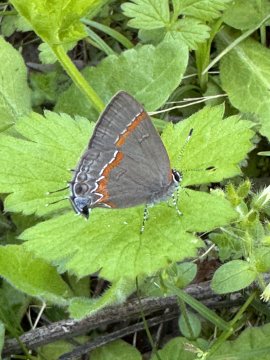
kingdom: Animalia
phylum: Arthropoda
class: Insecta
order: Lepidoptera
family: Lycaenidae
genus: Calycopis
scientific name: Calycopis cecrops
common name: Red-banded Hairstreak
